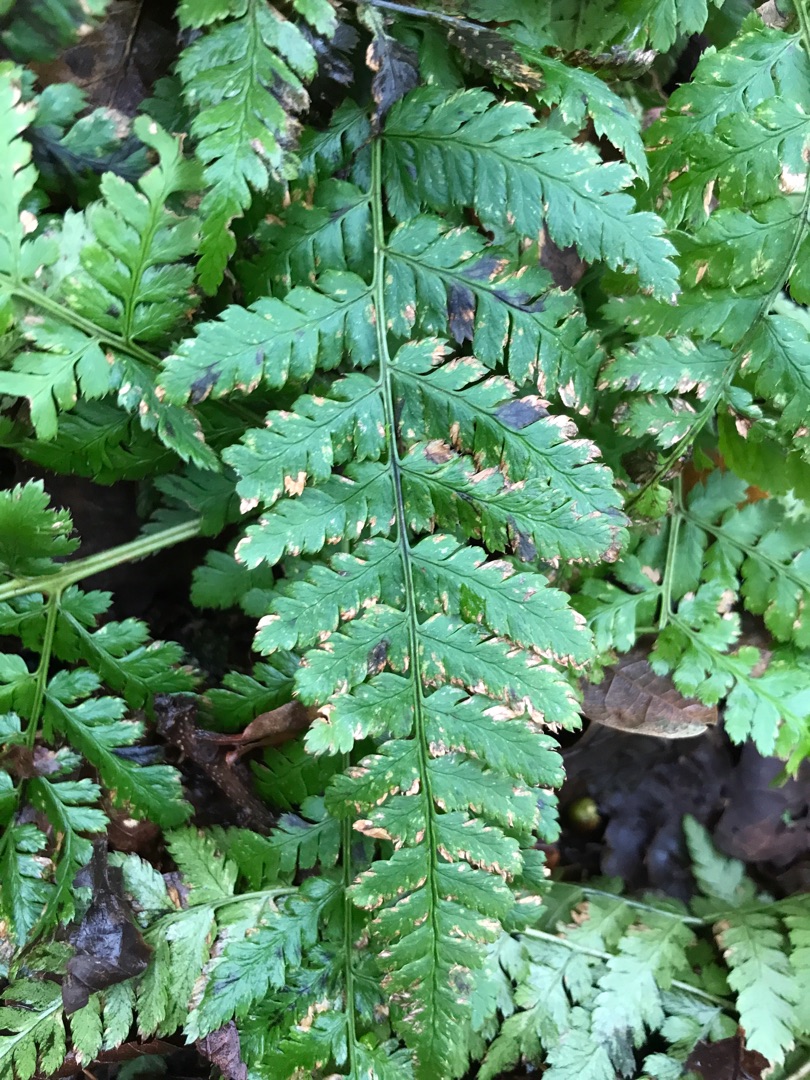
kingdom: Plantae
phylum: Tracheophyta
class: Polypodiopsida
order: Polypodiales
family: Dryopteridaceae
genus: Dryopteris
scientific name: Dryopteris dilatata
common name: Bredbladet mangeløv
